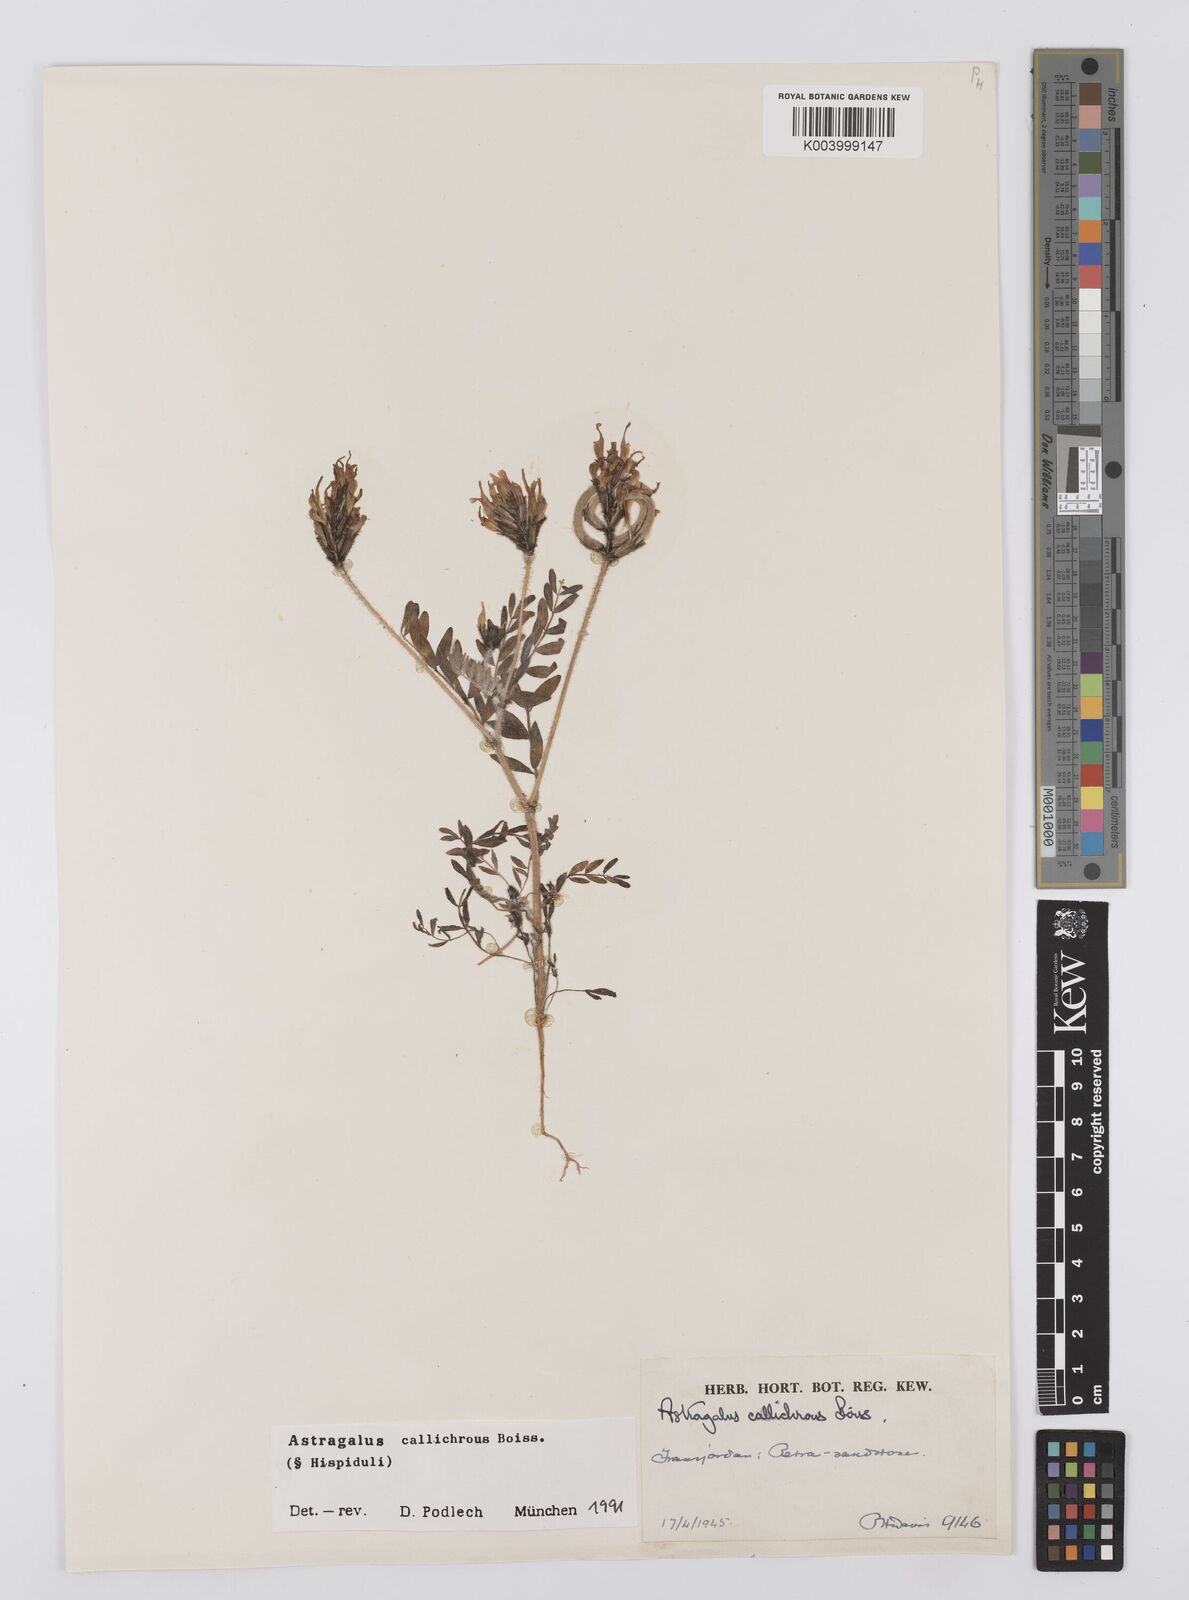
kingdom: Plantae
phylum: Tracheophyta
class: Magnoliopsida
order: Fabales
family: Fabaceae
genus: Astragalus
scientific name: Astragalus callichrous
